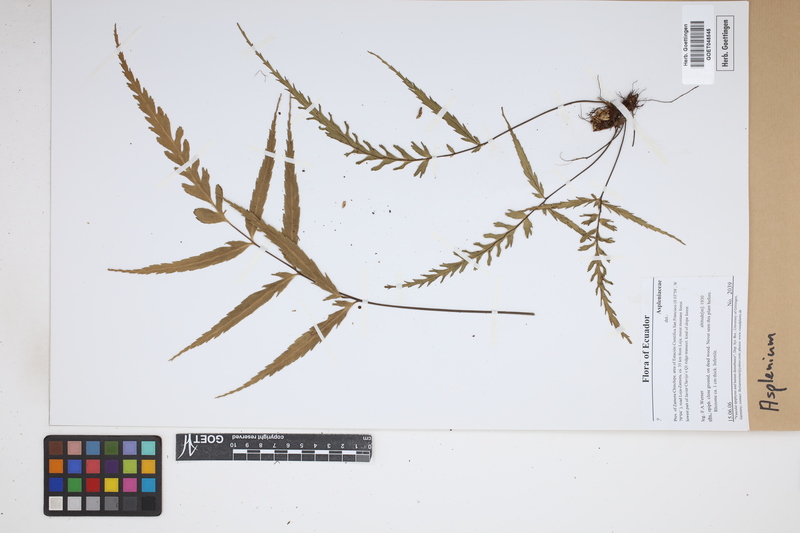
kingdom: Plantae
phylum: Tracheophyta
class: Polypodiopsida
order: Polypodiales
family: Aspleniaceae
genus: Asplenium
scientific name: Asplenium
